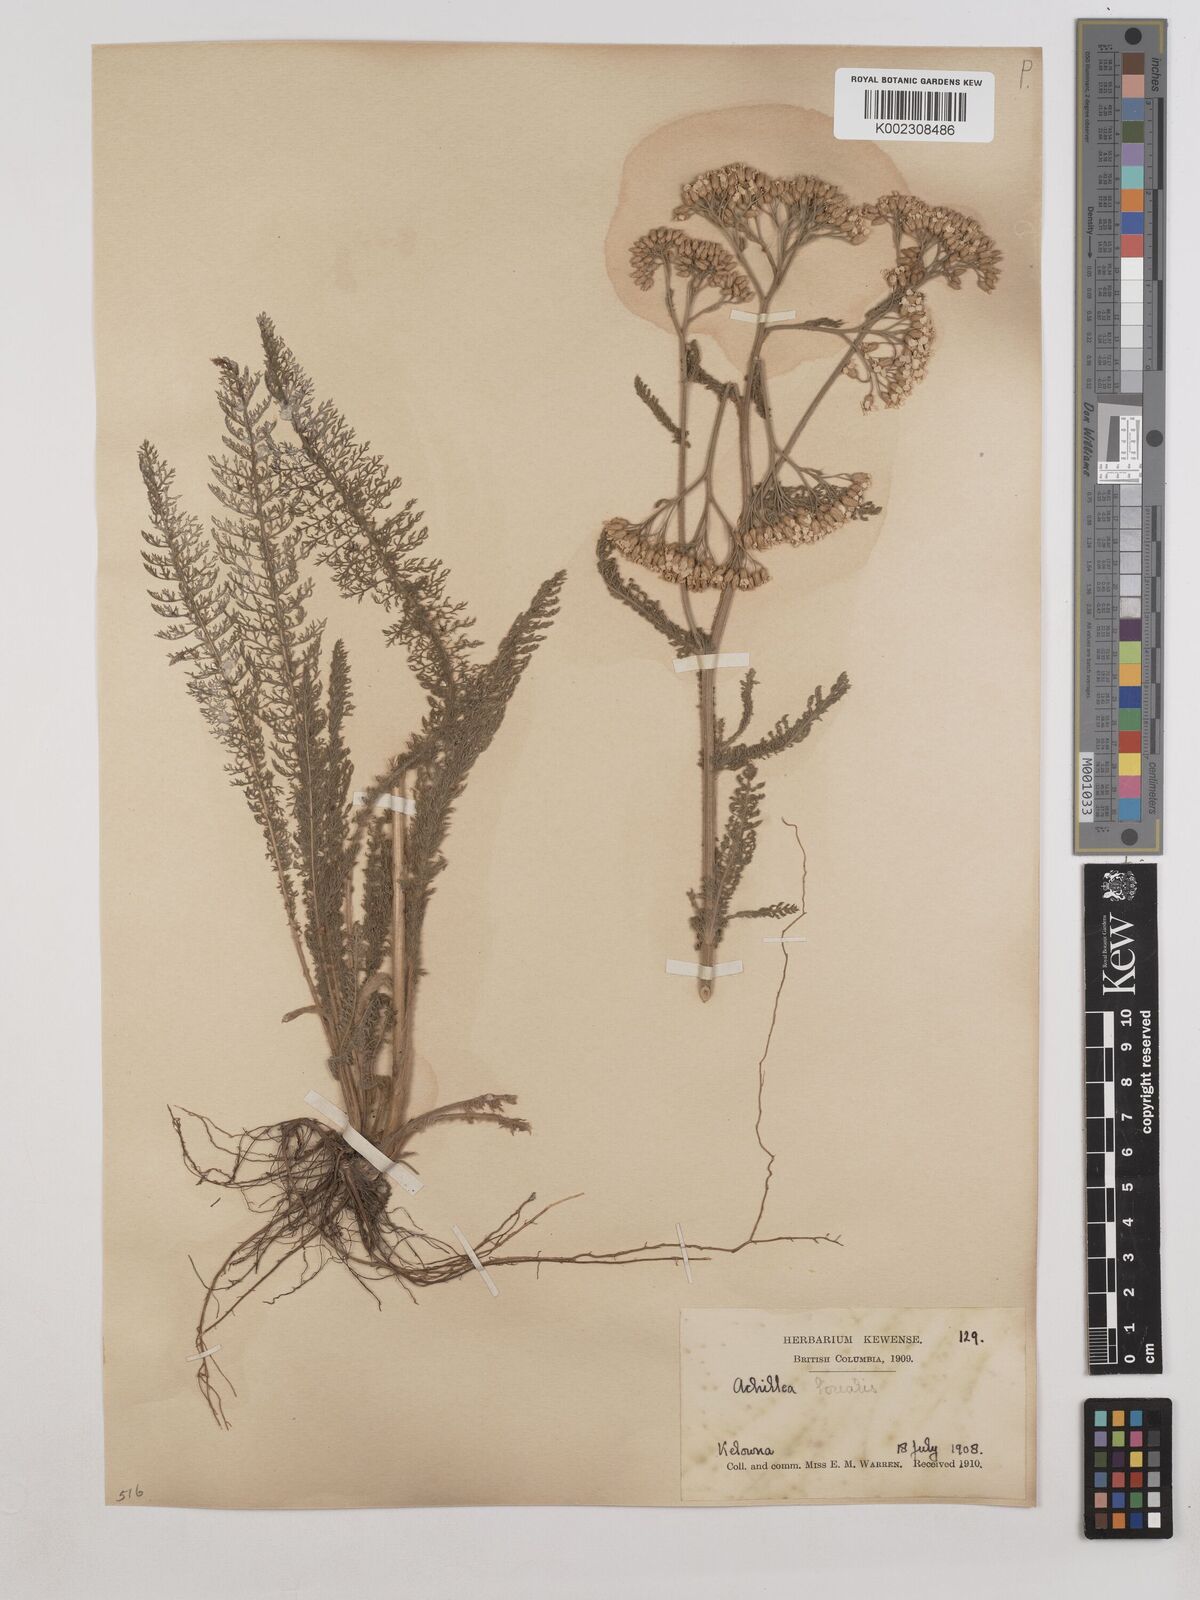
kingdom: Plantae
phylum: Tracheophyta
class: Magnoliopsida
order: Asterales
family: Asteraceae
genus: Achillea
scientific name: Achillea millefolium
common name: Yarrow
